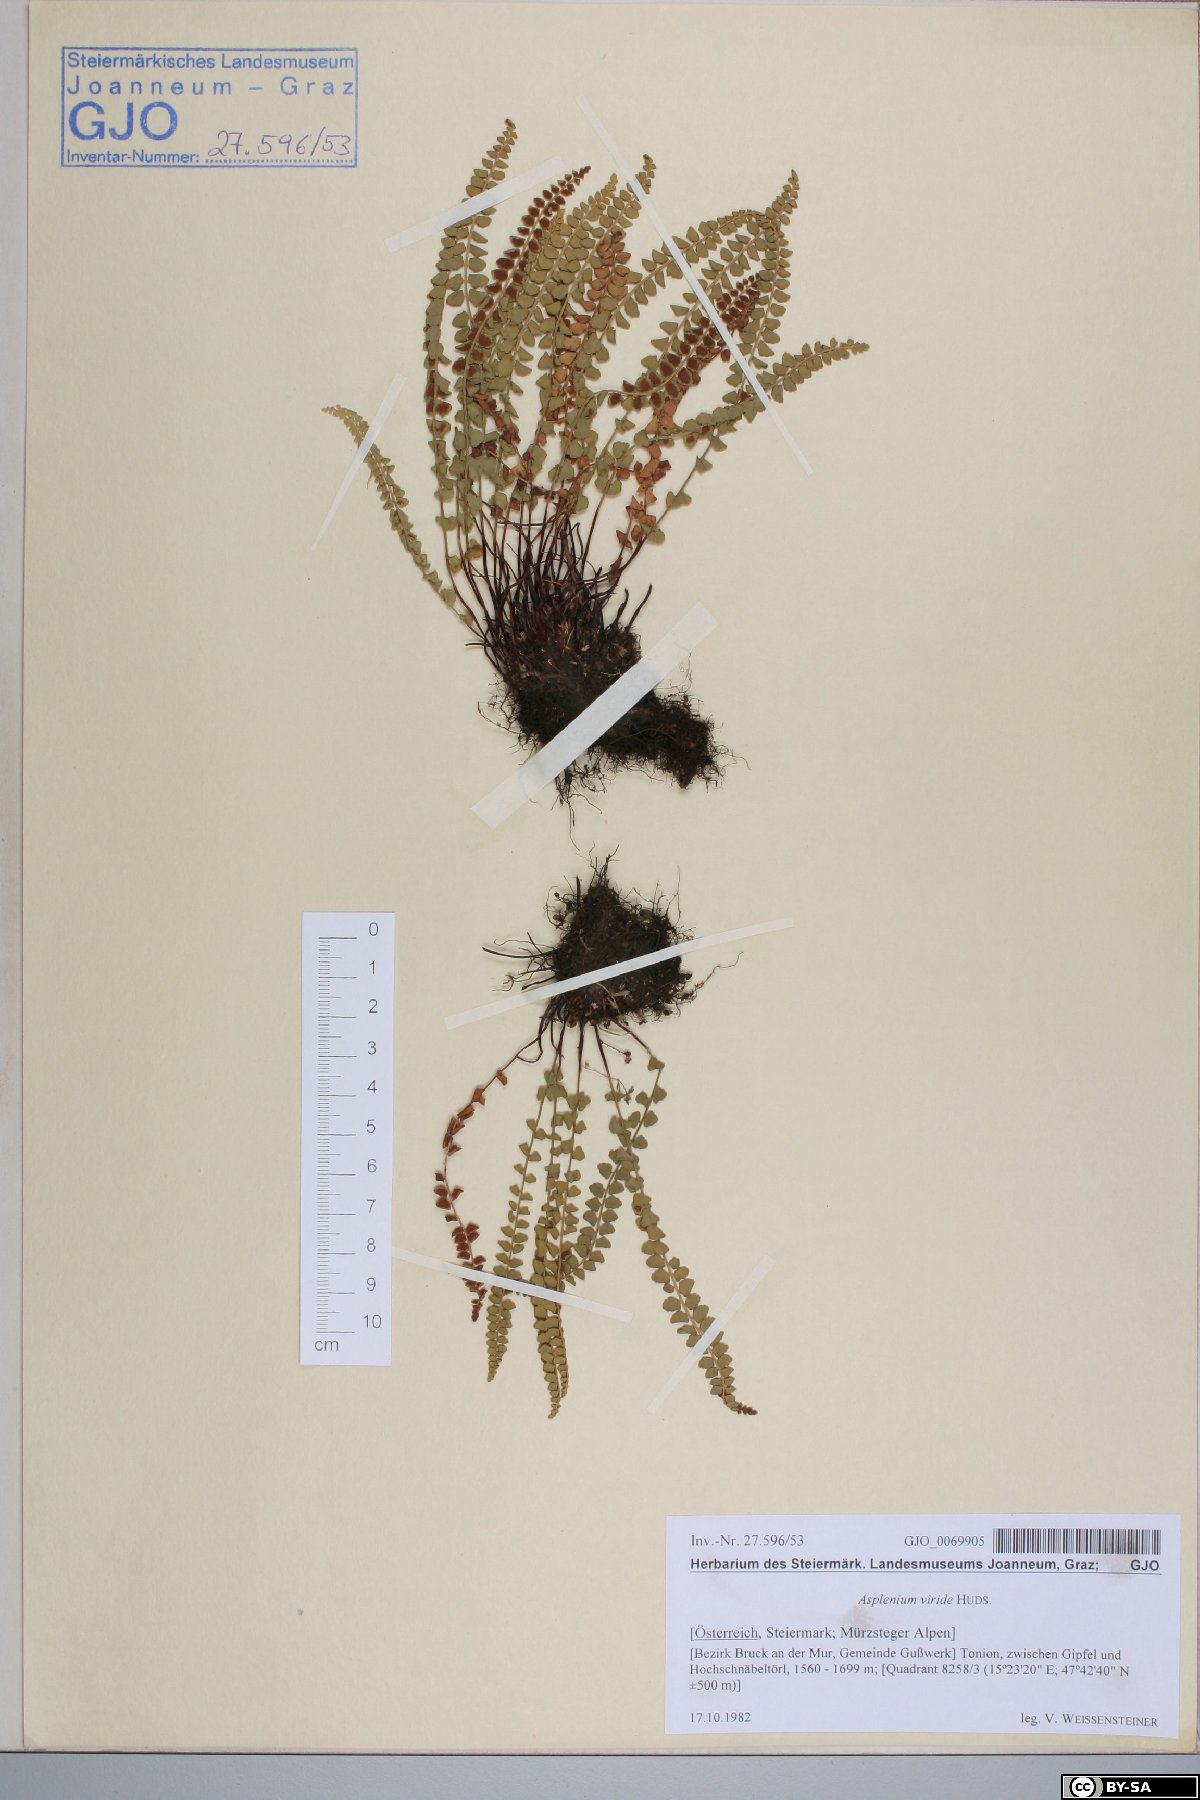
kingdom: Plantae
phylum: Tracheophyta
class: Polypodiopsida
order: Polypodiales
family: Aspleniaceae
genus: Asplenium
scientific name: Asplenium viride
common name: Green spleenwort
